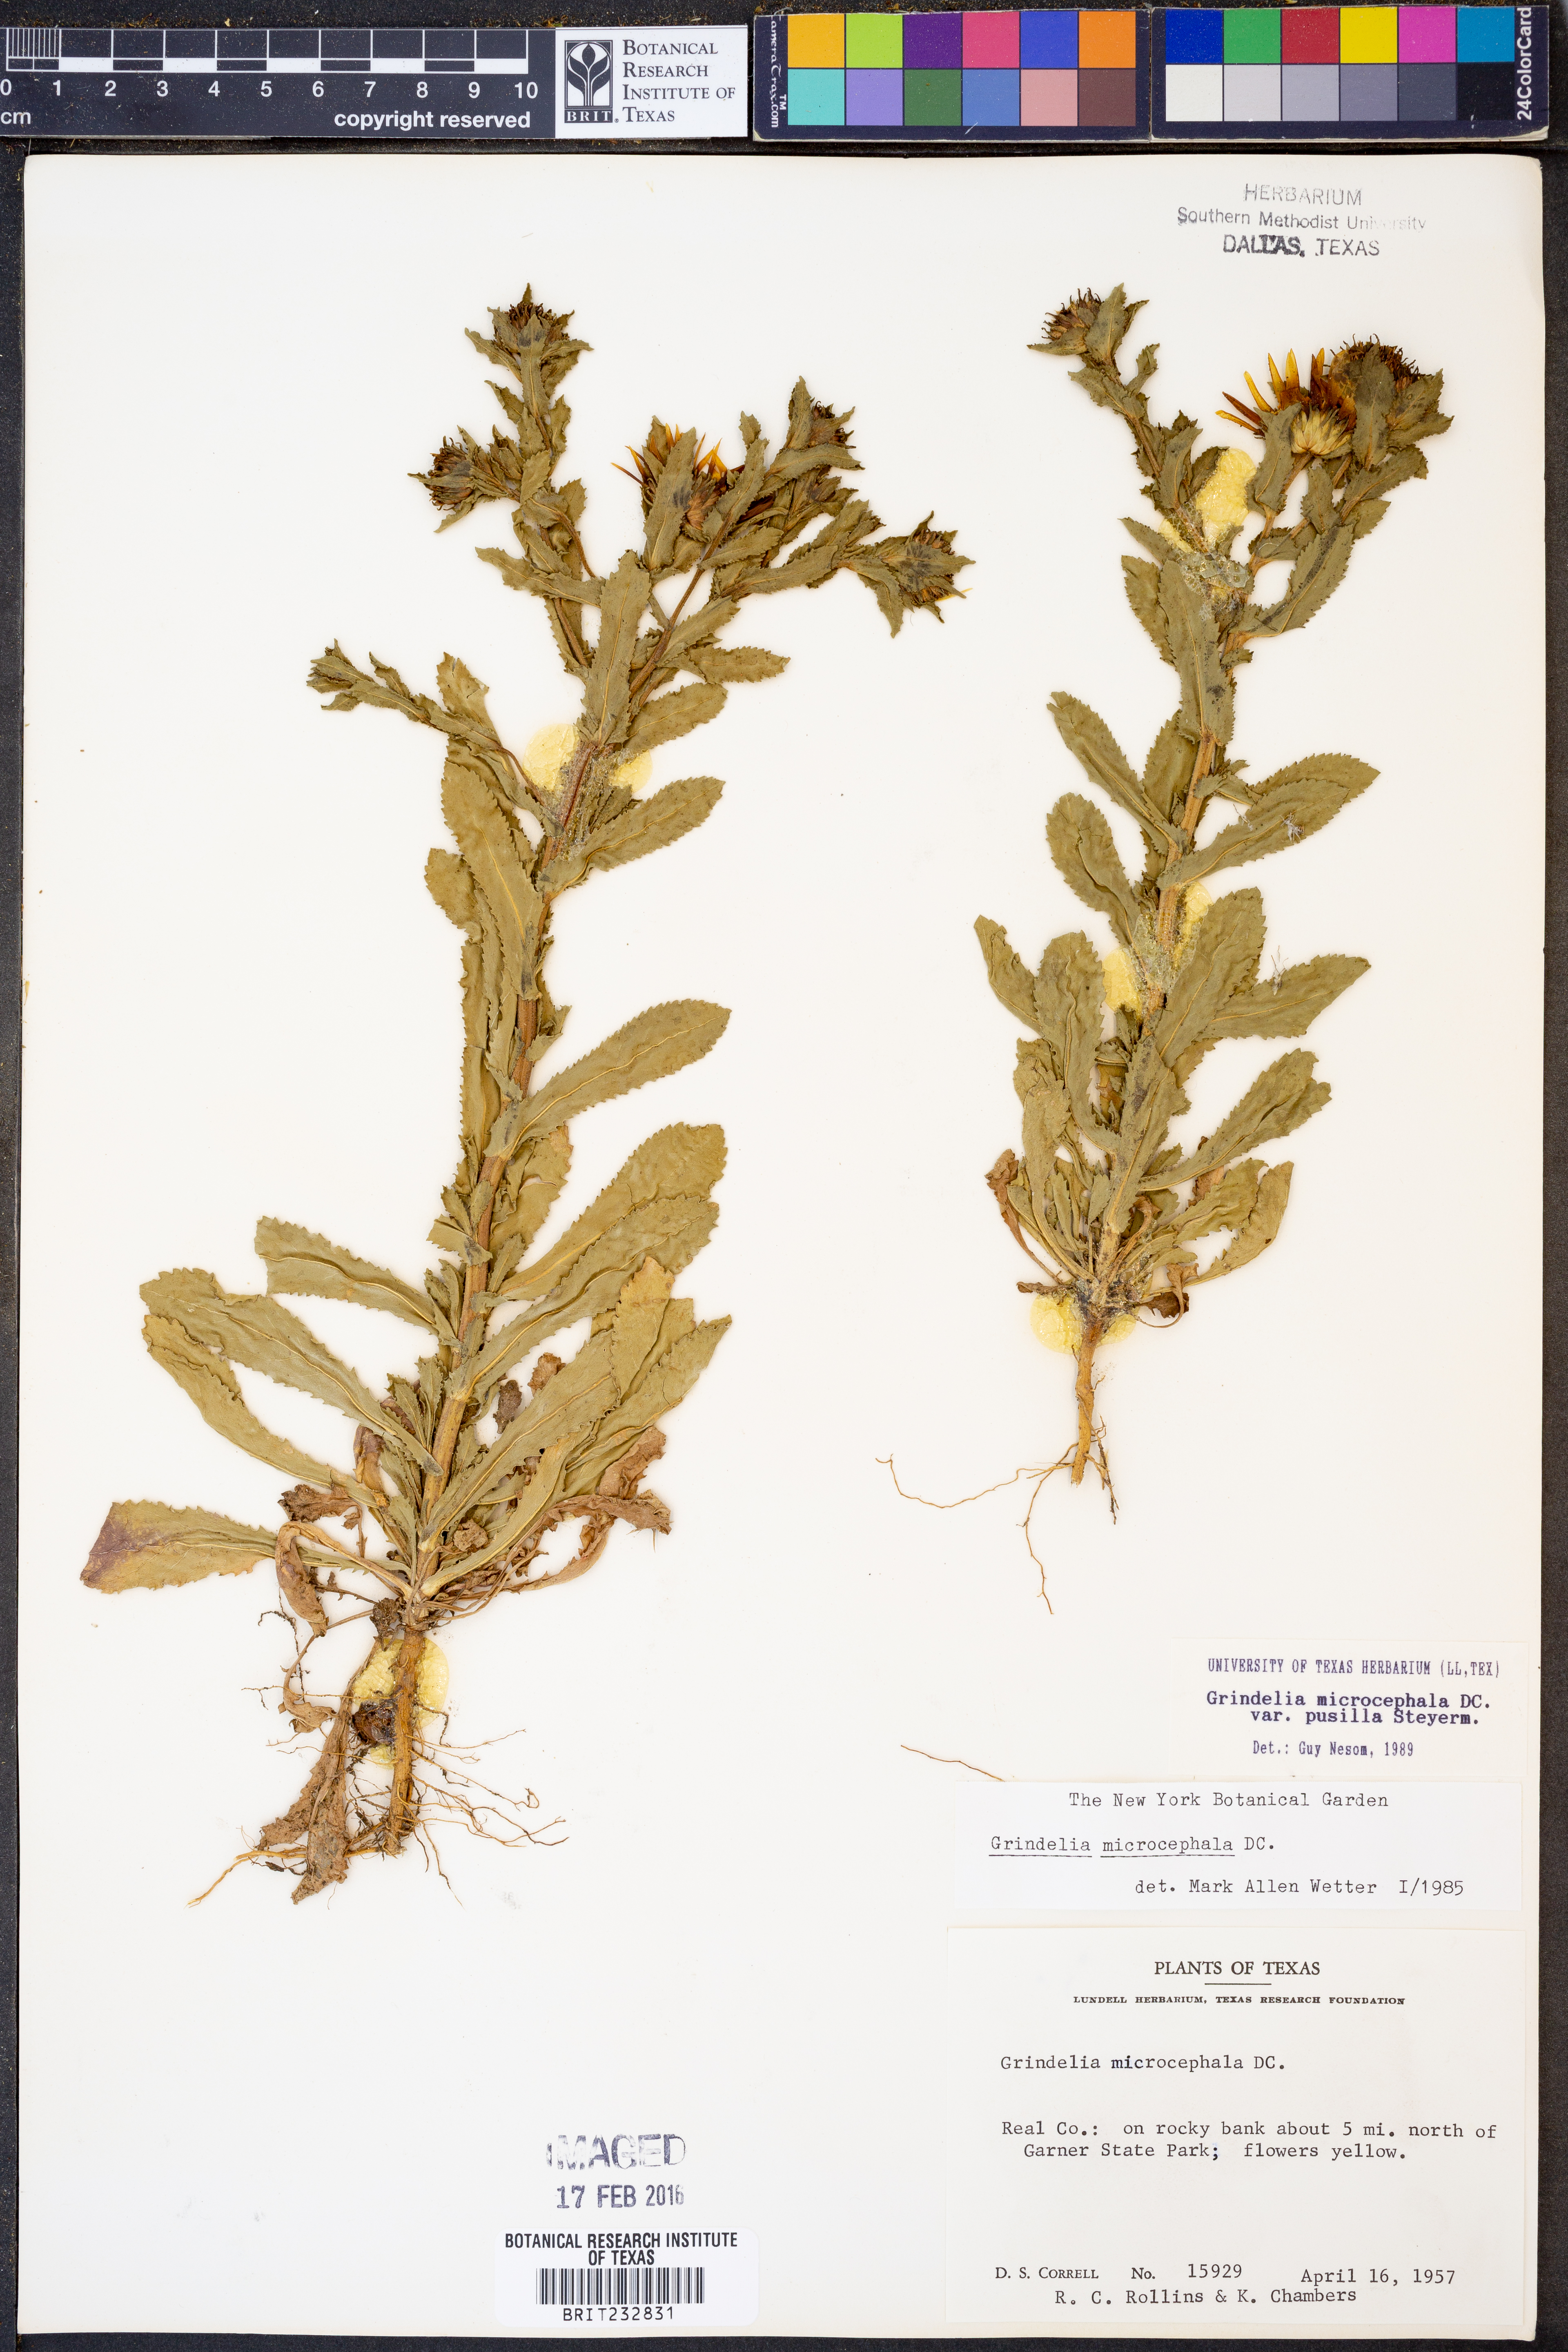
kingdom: Plantae
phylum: Tracheophyta
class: Magnoliopsida
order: Asterales
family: Asteraceae
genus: Grindelia
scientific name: Grindelia pusilla
